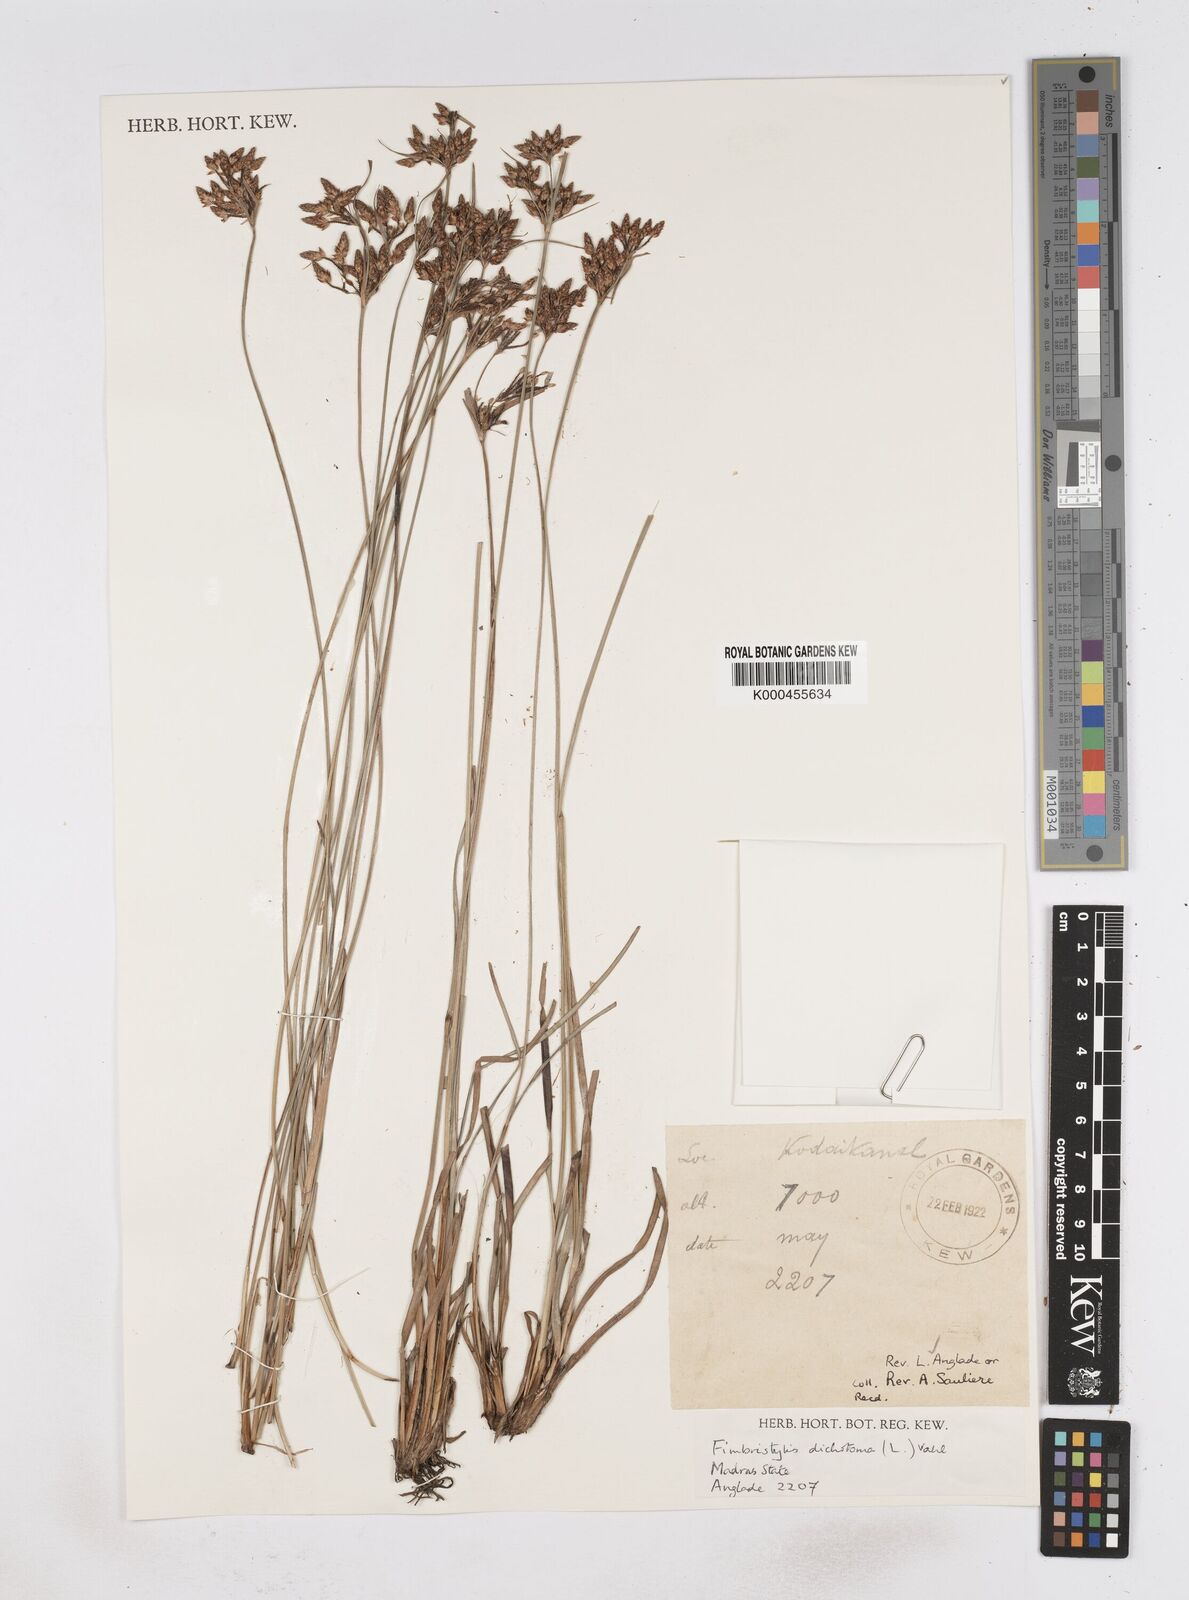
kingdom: Plantae
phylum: Tracheophyta
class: Liliopsida
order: Poales
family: Cyperaceae
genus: Fimbristylis
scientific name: Fimbristylis dichotoma
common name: Forked fimbry
